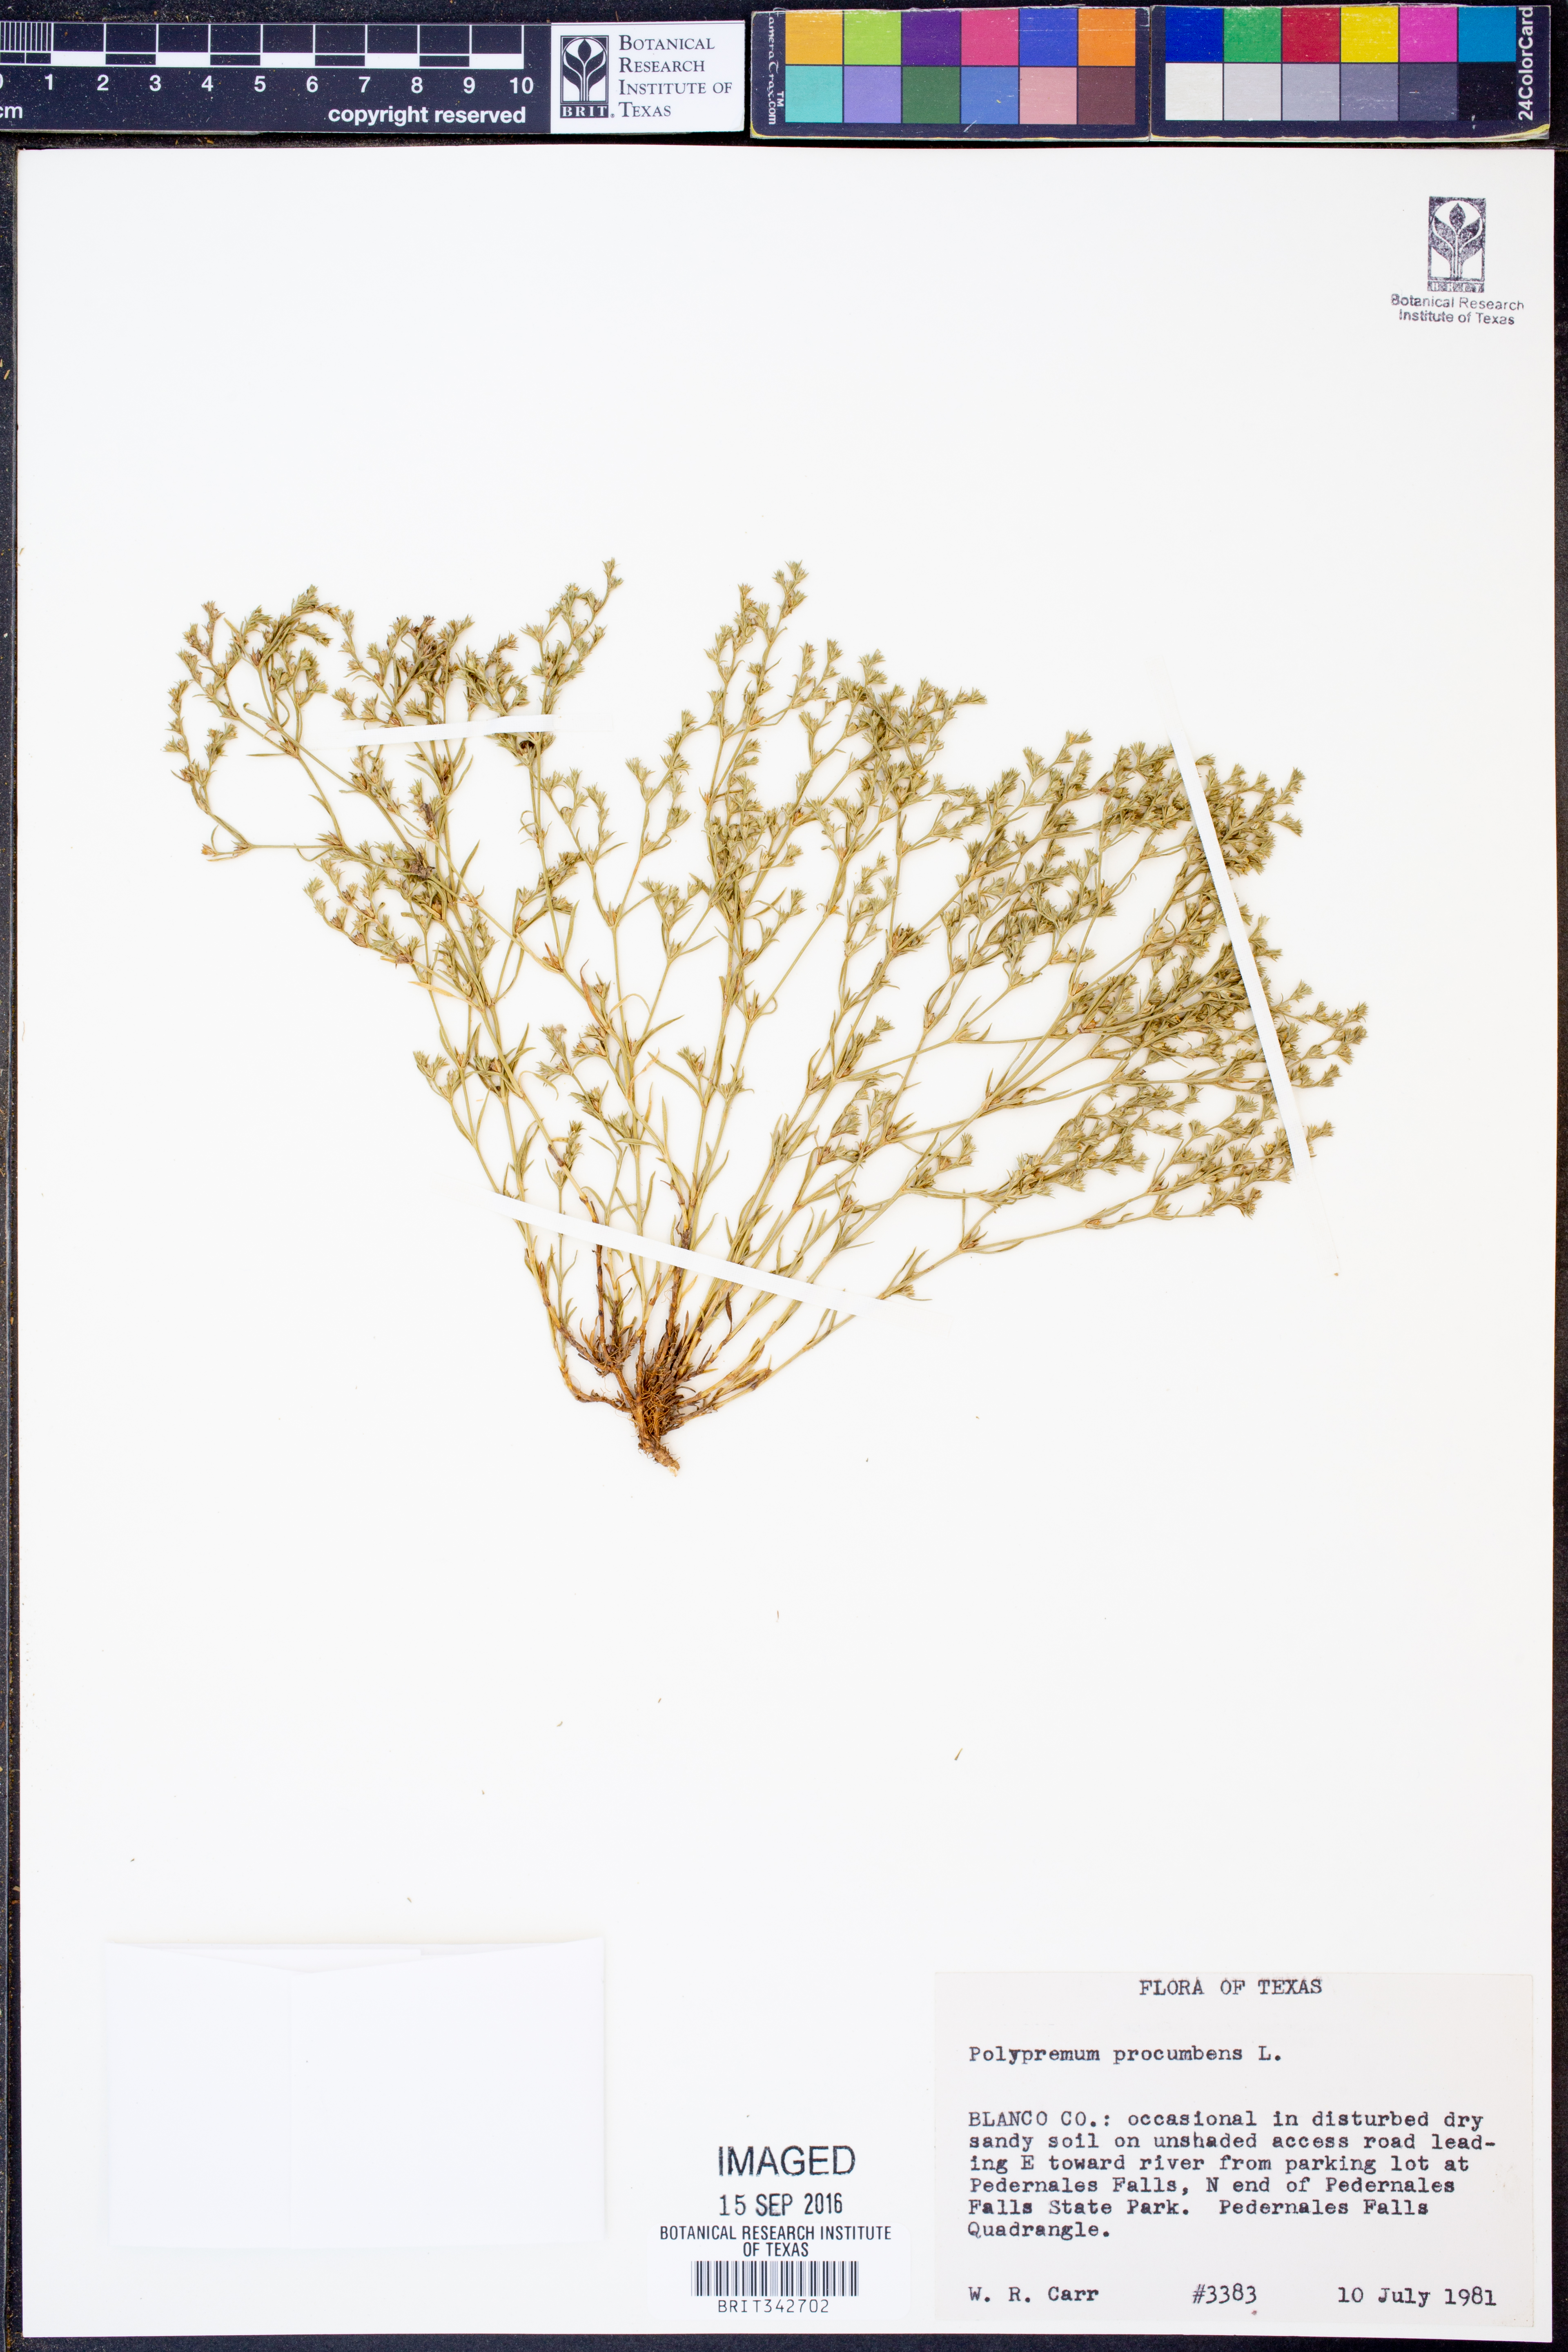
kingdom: Plantae
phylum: Tracheophyta
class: Magnoliopsida
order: Lamiales
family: Tetrachondraceae
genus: Polypremum
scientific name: Polypremum procumbens
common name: Juniper-leaf
